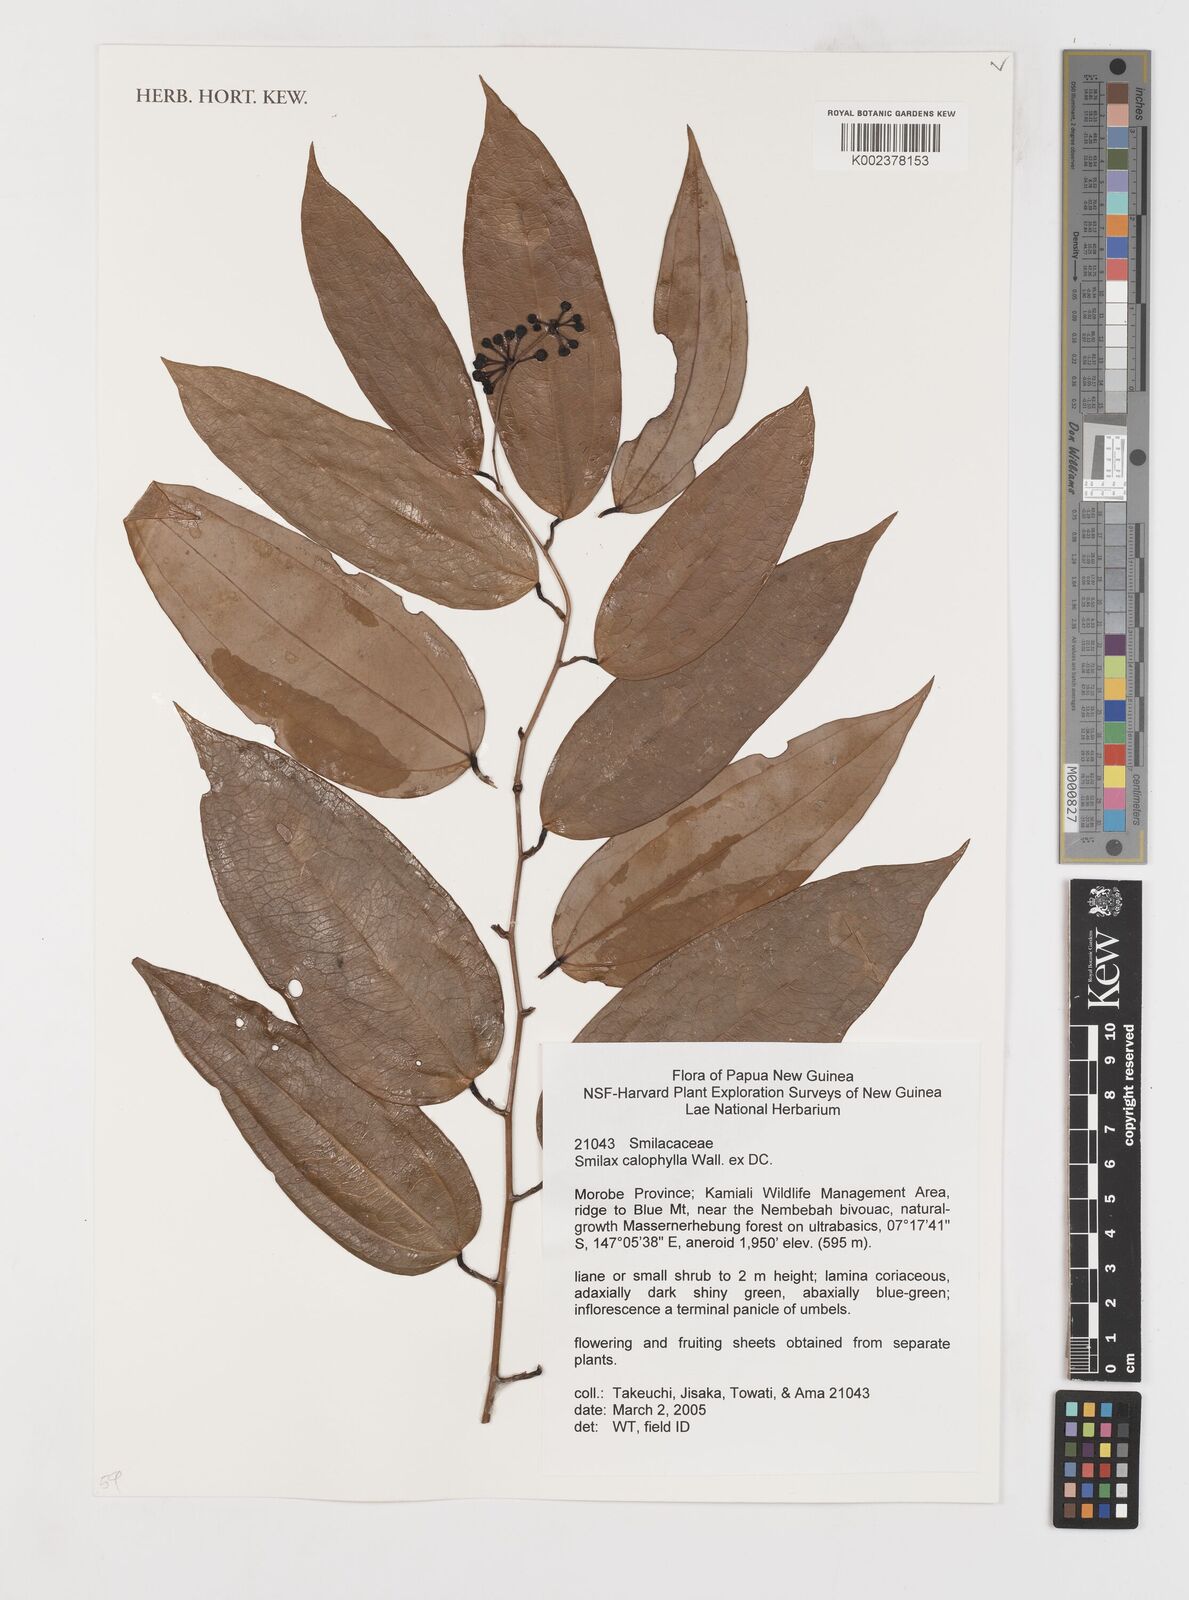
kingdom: Plantae
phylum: Tracheophyta
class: Liliopsida
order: Liliales
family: Smilacaceae
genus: Smilax
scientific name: Smilax calophylla
